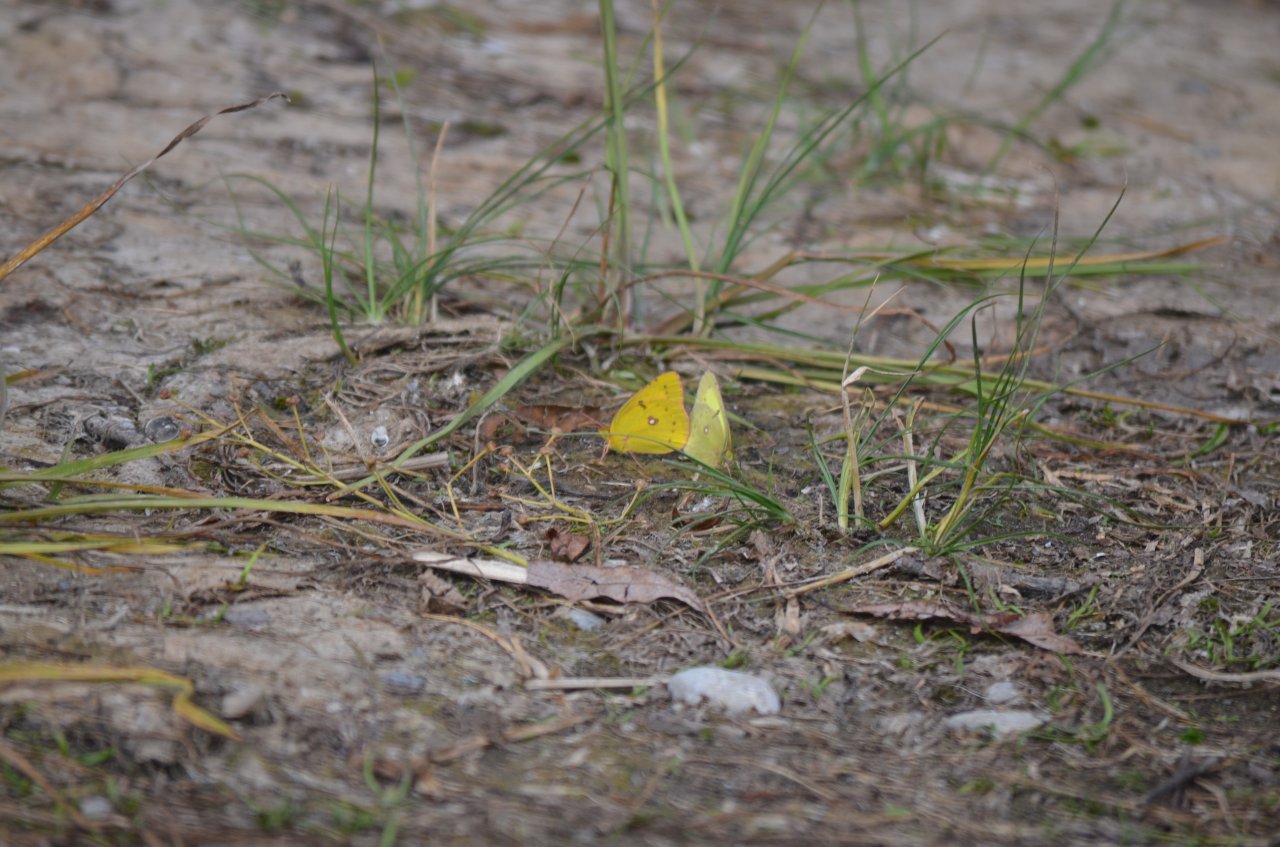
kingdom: Animalia
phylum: Arthropoda
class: Insecta
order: Lepidoptera
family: Pieridae
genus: Colias
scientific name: Colias philodice
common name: Clouded Sulphur
